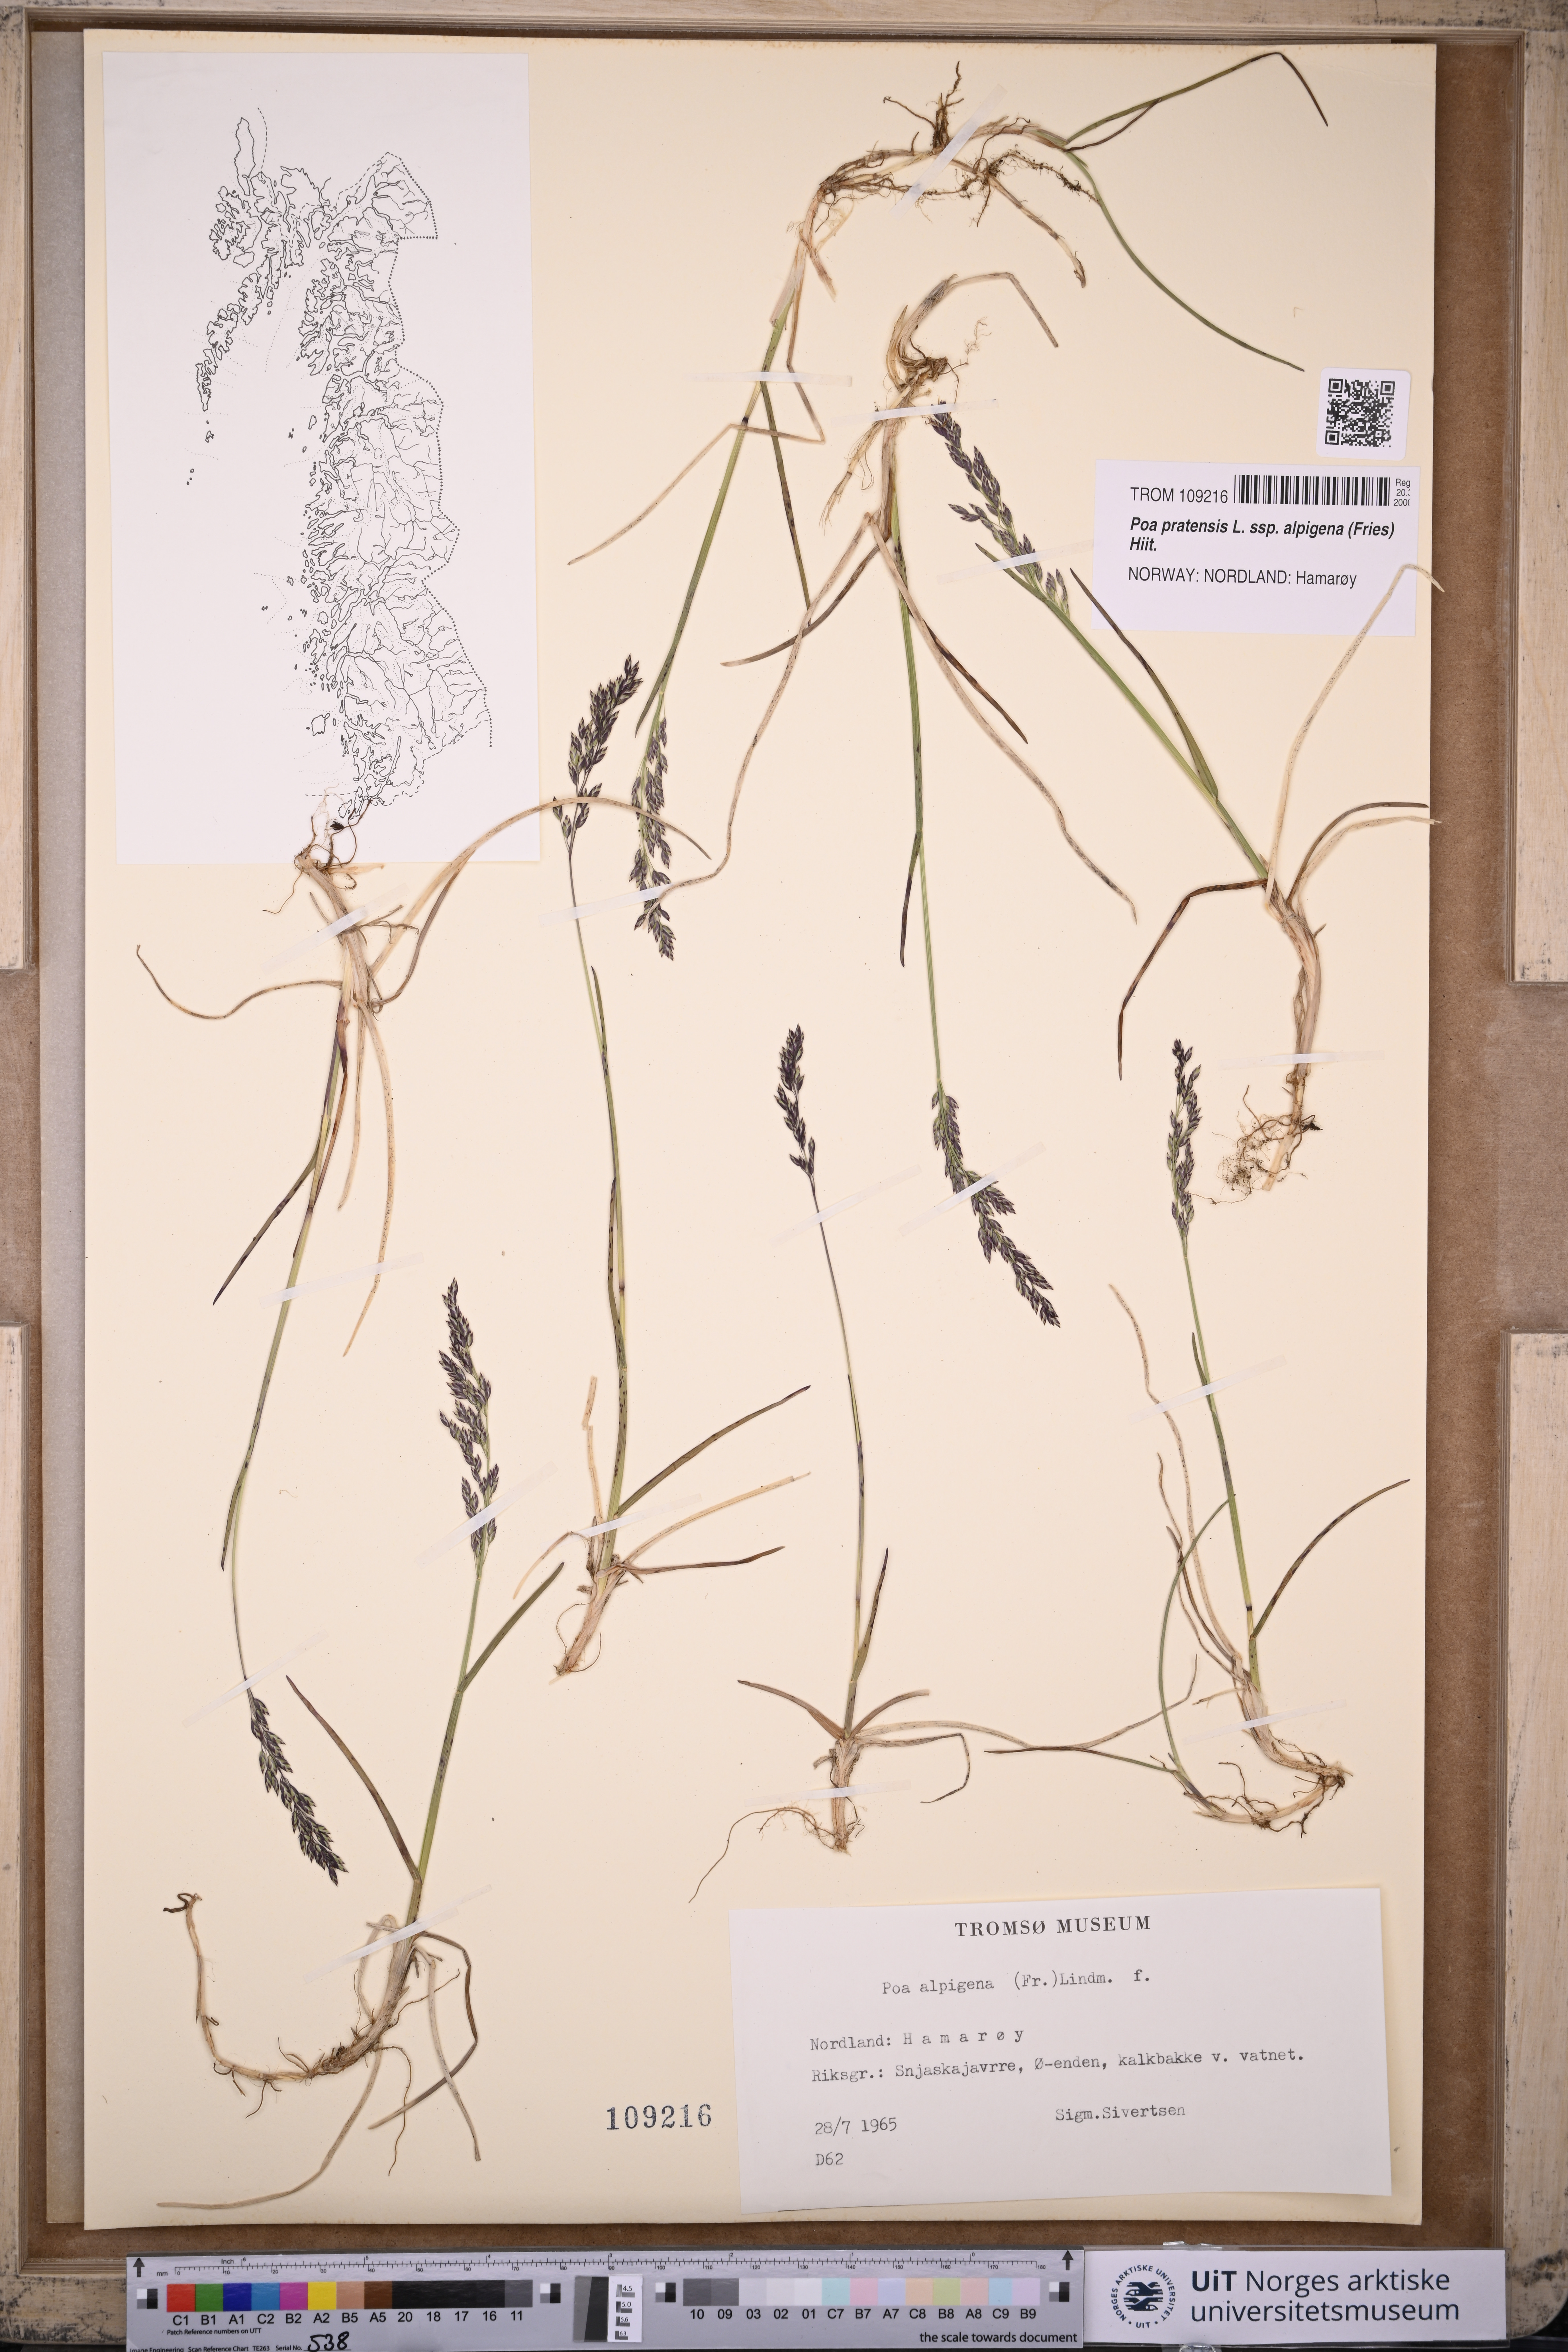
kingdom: Plantae
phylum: Tracheophyta
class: Liliopsida
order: Poales
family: Poaceae
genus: Poa
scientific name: Poa alpigena
